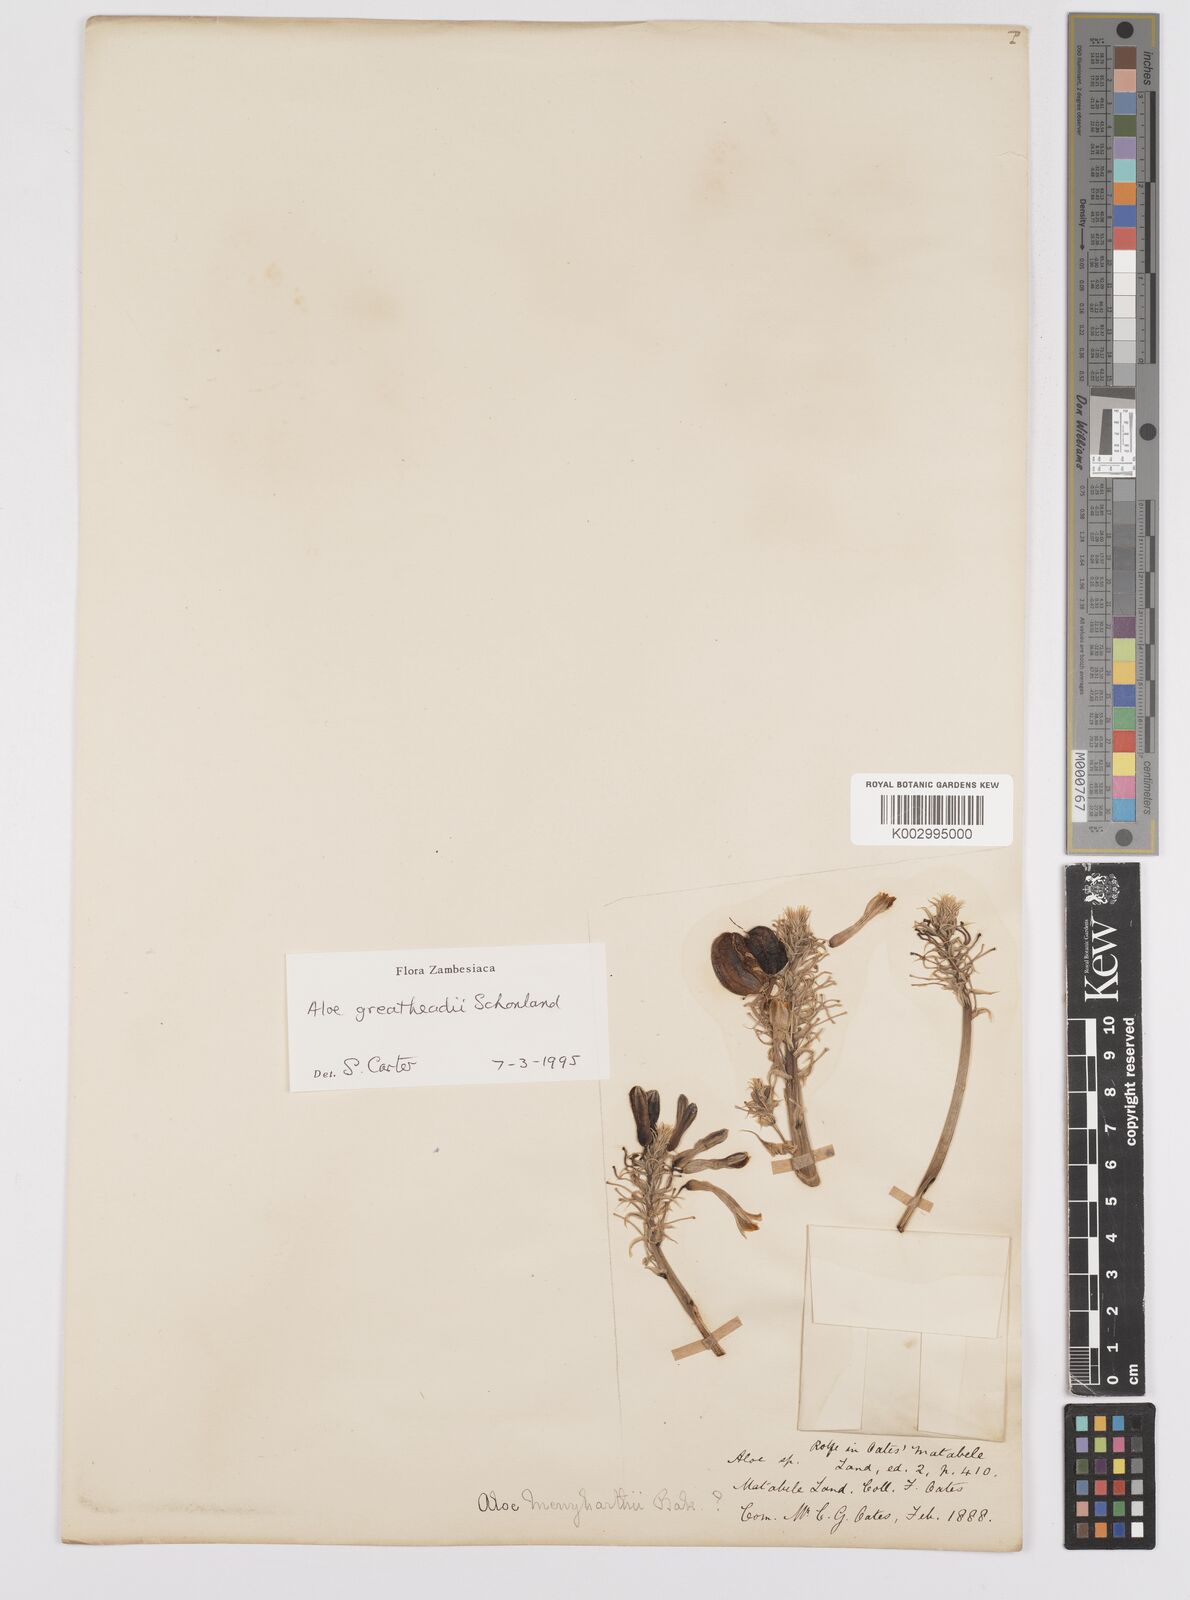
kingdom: Plantae
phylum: Tracheophyta
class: Liliopsida
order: Asparagales
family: Asphodelaceae
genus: Aloe
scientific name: Aloe greatheadii
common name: Greathead's aloe
